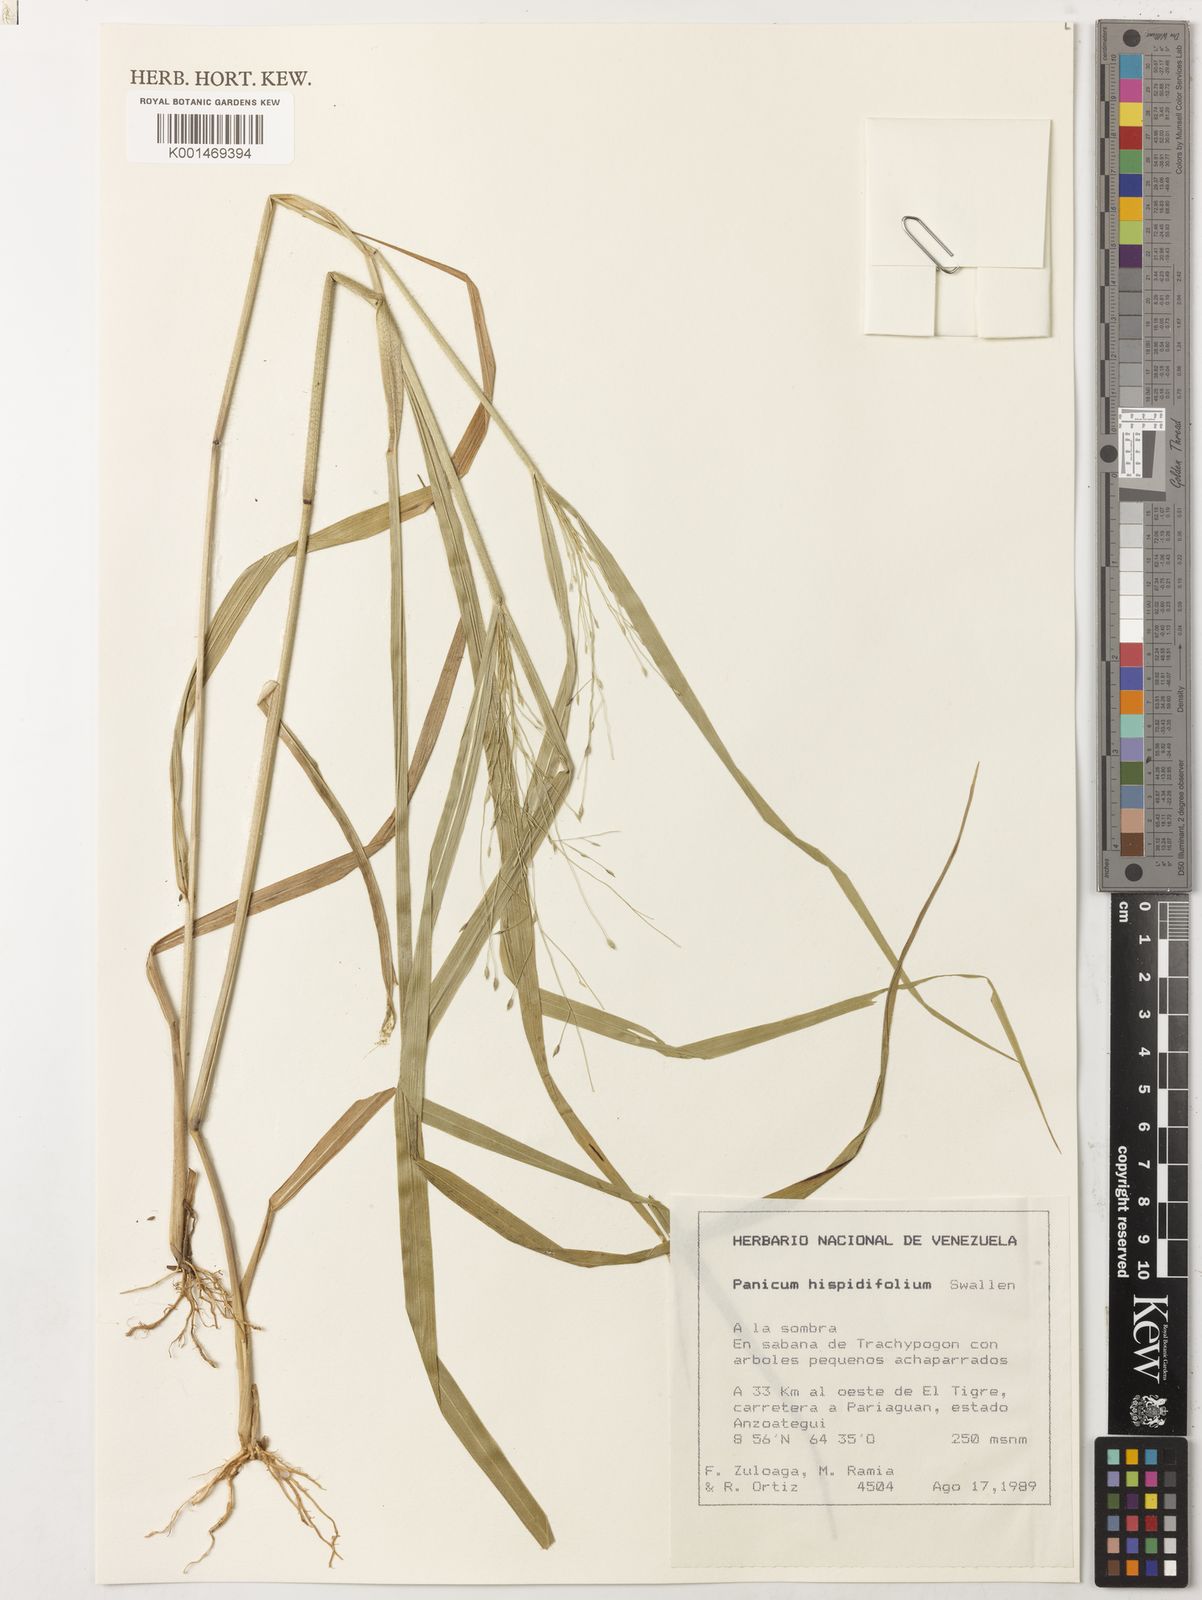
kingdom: Plantae
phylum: Tracheophyta
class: Liliopsida
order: Poales
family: Poaceae
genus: Panicum
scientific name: Panicum hispidifolium
